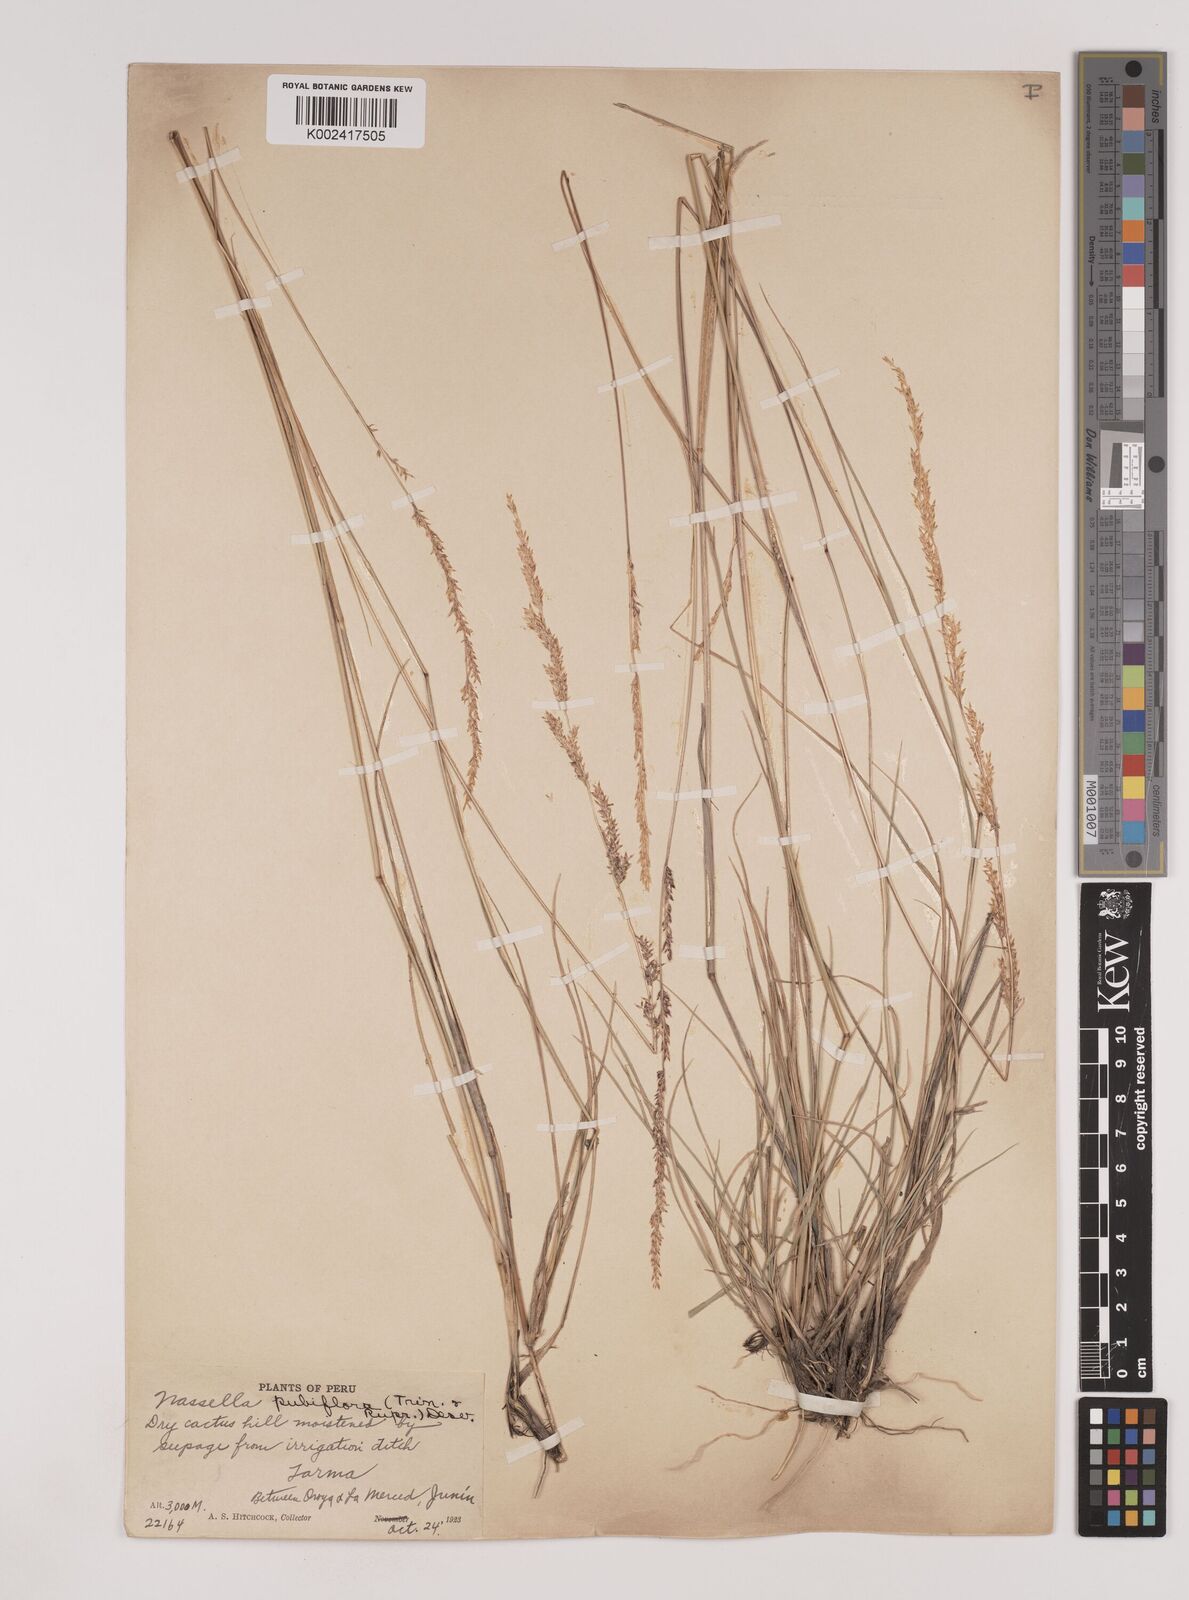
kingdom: Plantae
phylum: Tracheophyta
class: Liliopsida
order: Poales
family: Poaceae
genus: Nassella
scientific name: Nassella pubiflora
